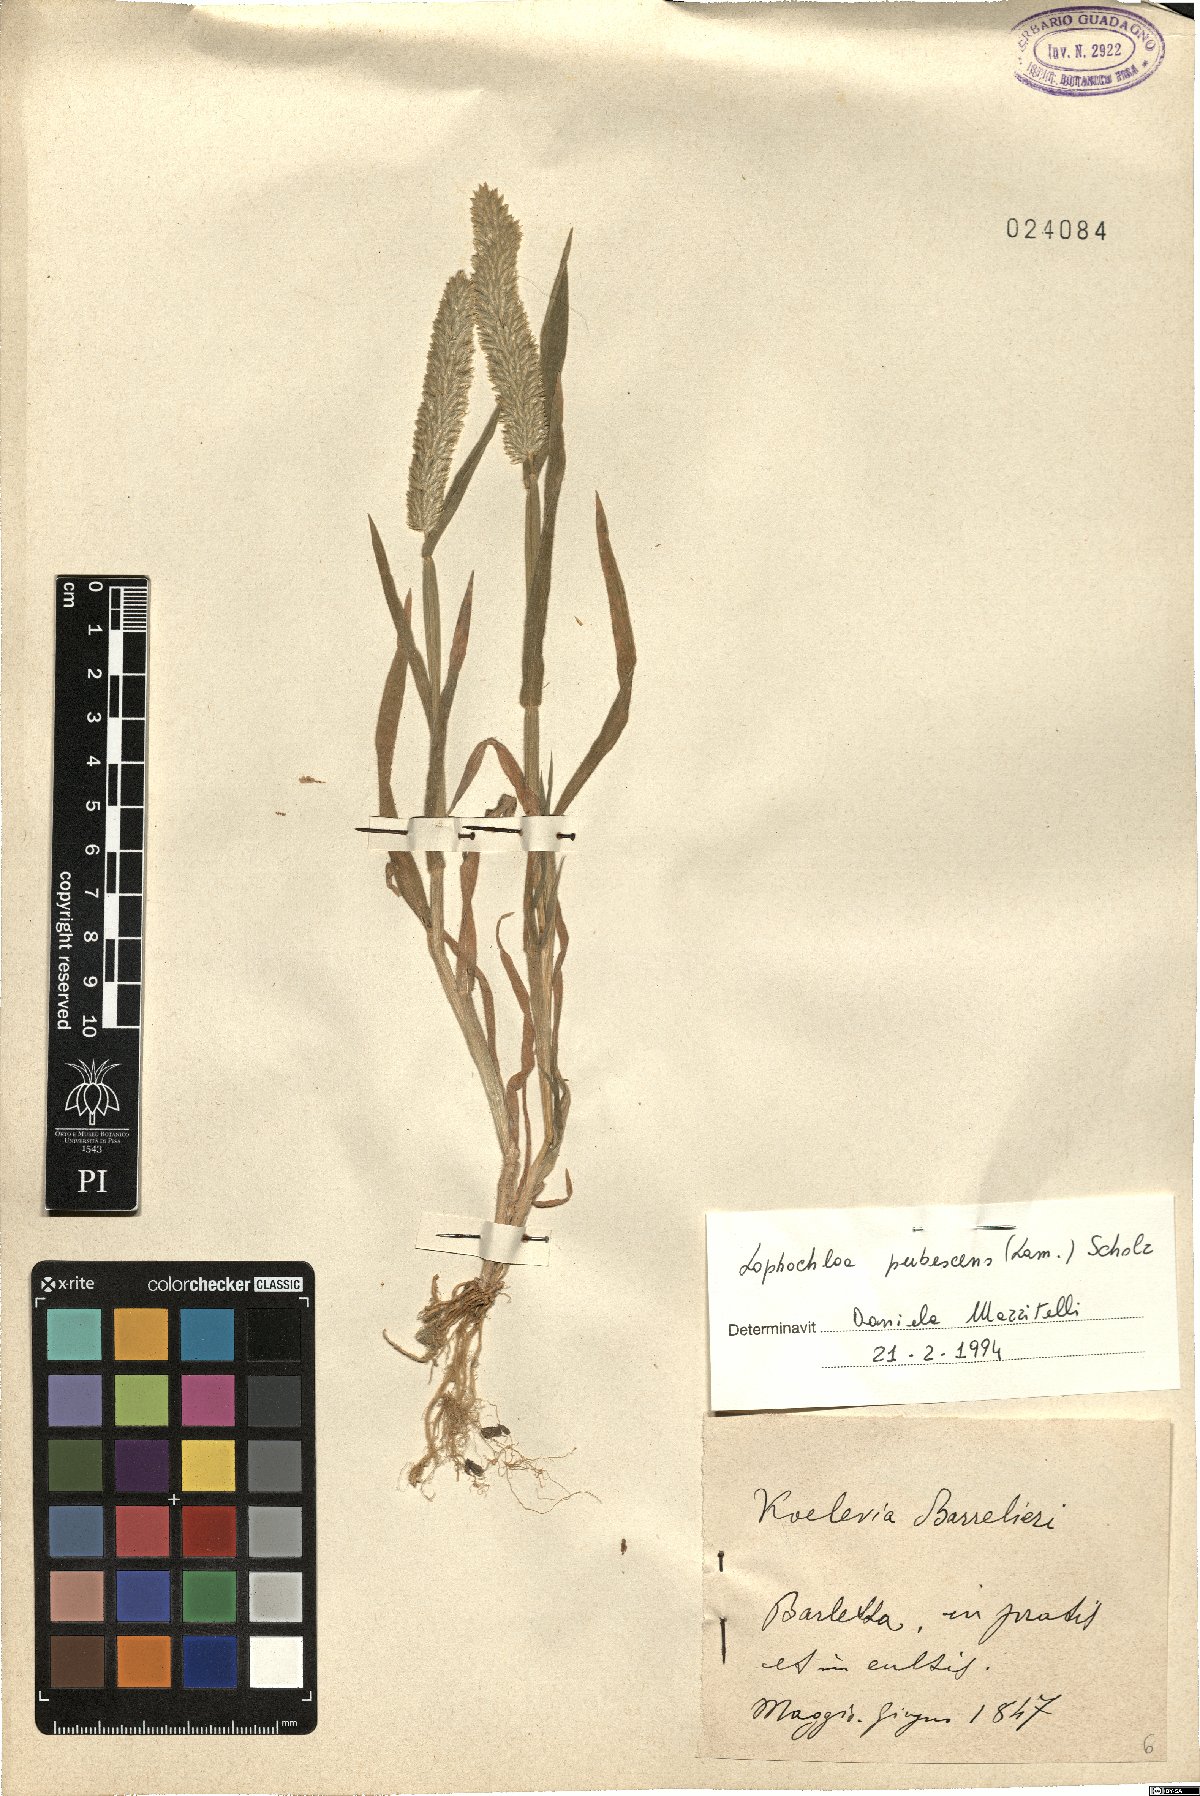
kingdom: Plantae
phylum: Tracheophyta
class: Liliopsida
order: Poales
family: Poaceae
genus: Rostraria
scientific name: Rostraria litorea
